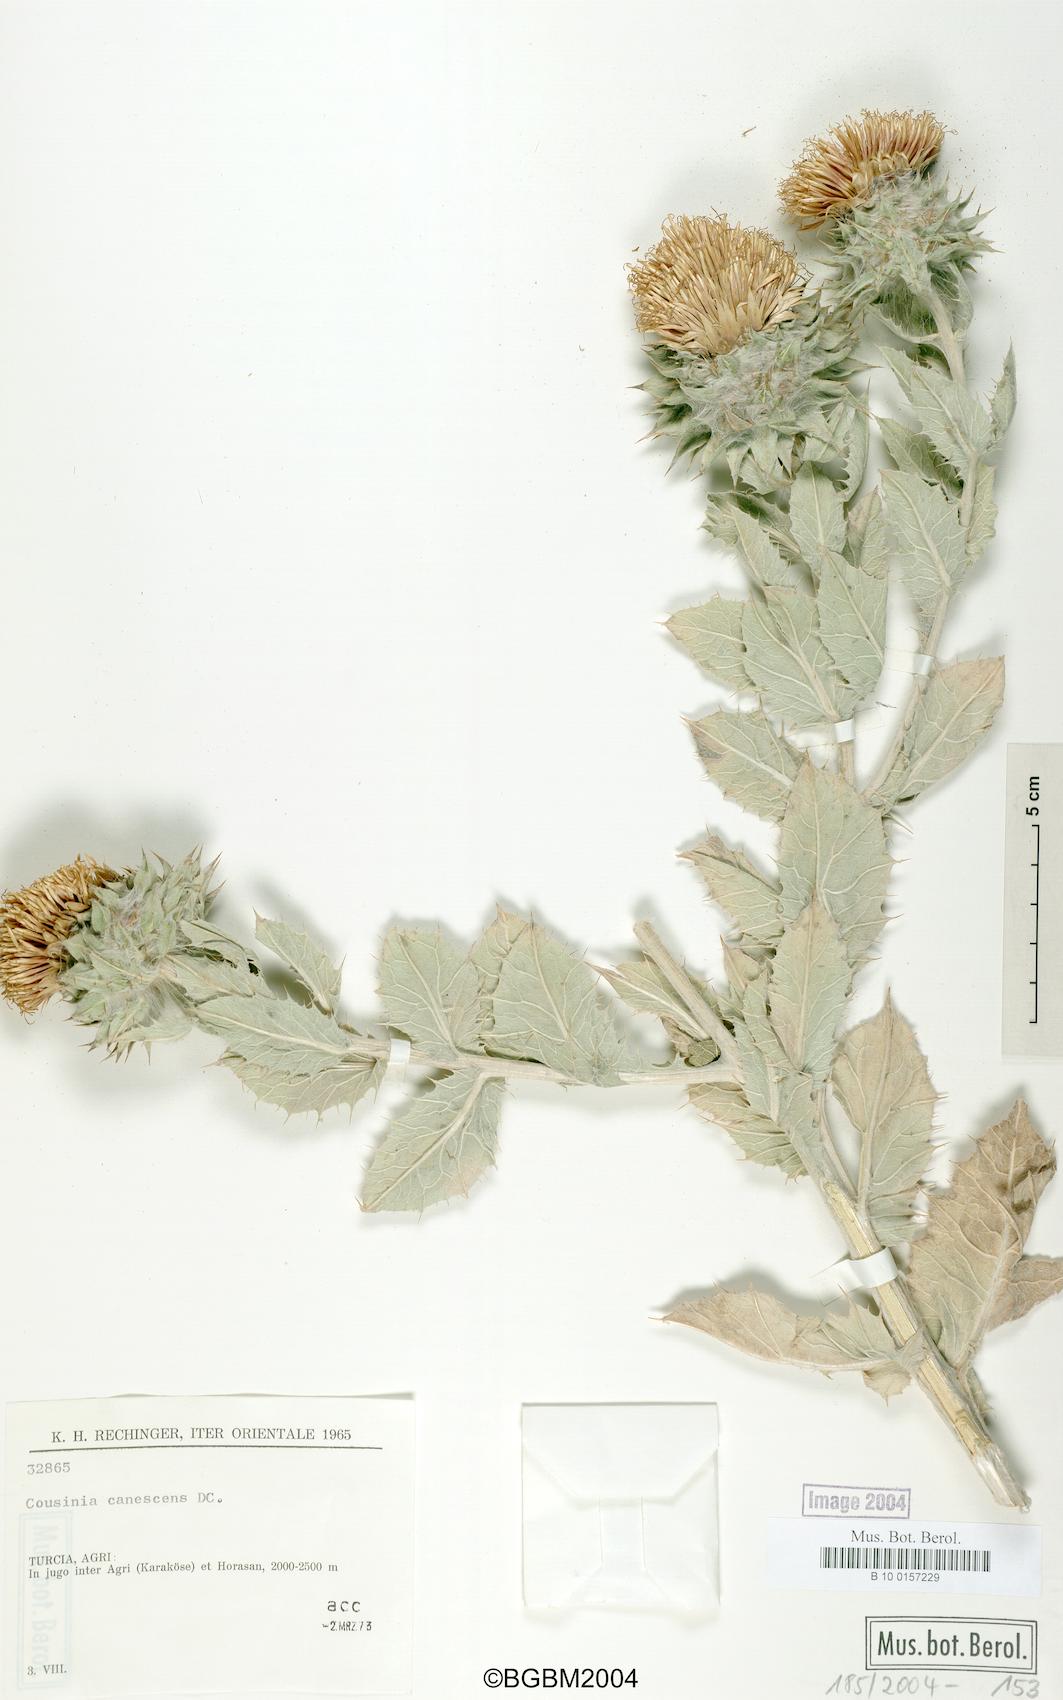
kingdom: Plantae
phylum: Tracheophyta
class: Magnoliopsida
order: Asterales
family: Asteraceae
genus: Cousinia
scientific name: Cousinia canescens
